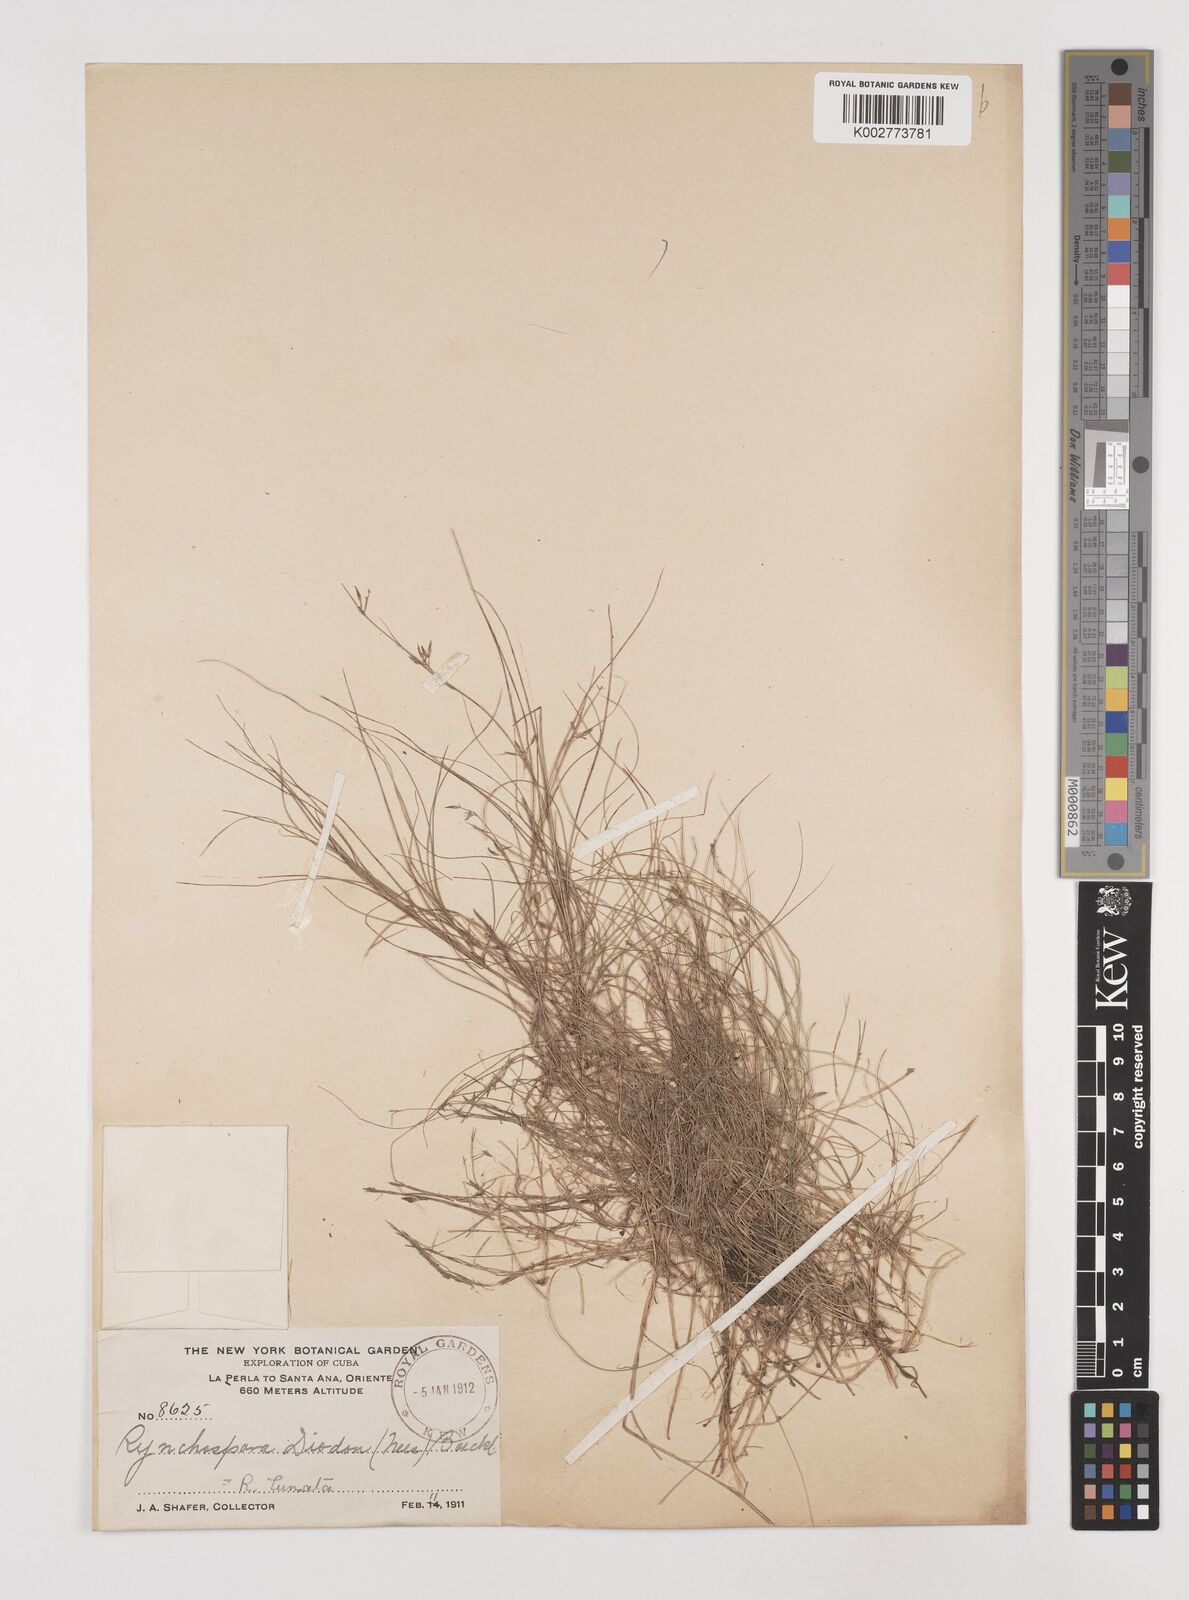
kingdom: Plantae
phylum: Tracheophyta
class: Liliopsida
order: Poales
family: Cyperaceae
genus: Rhynchospora
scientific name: Rhynchospora diodon
